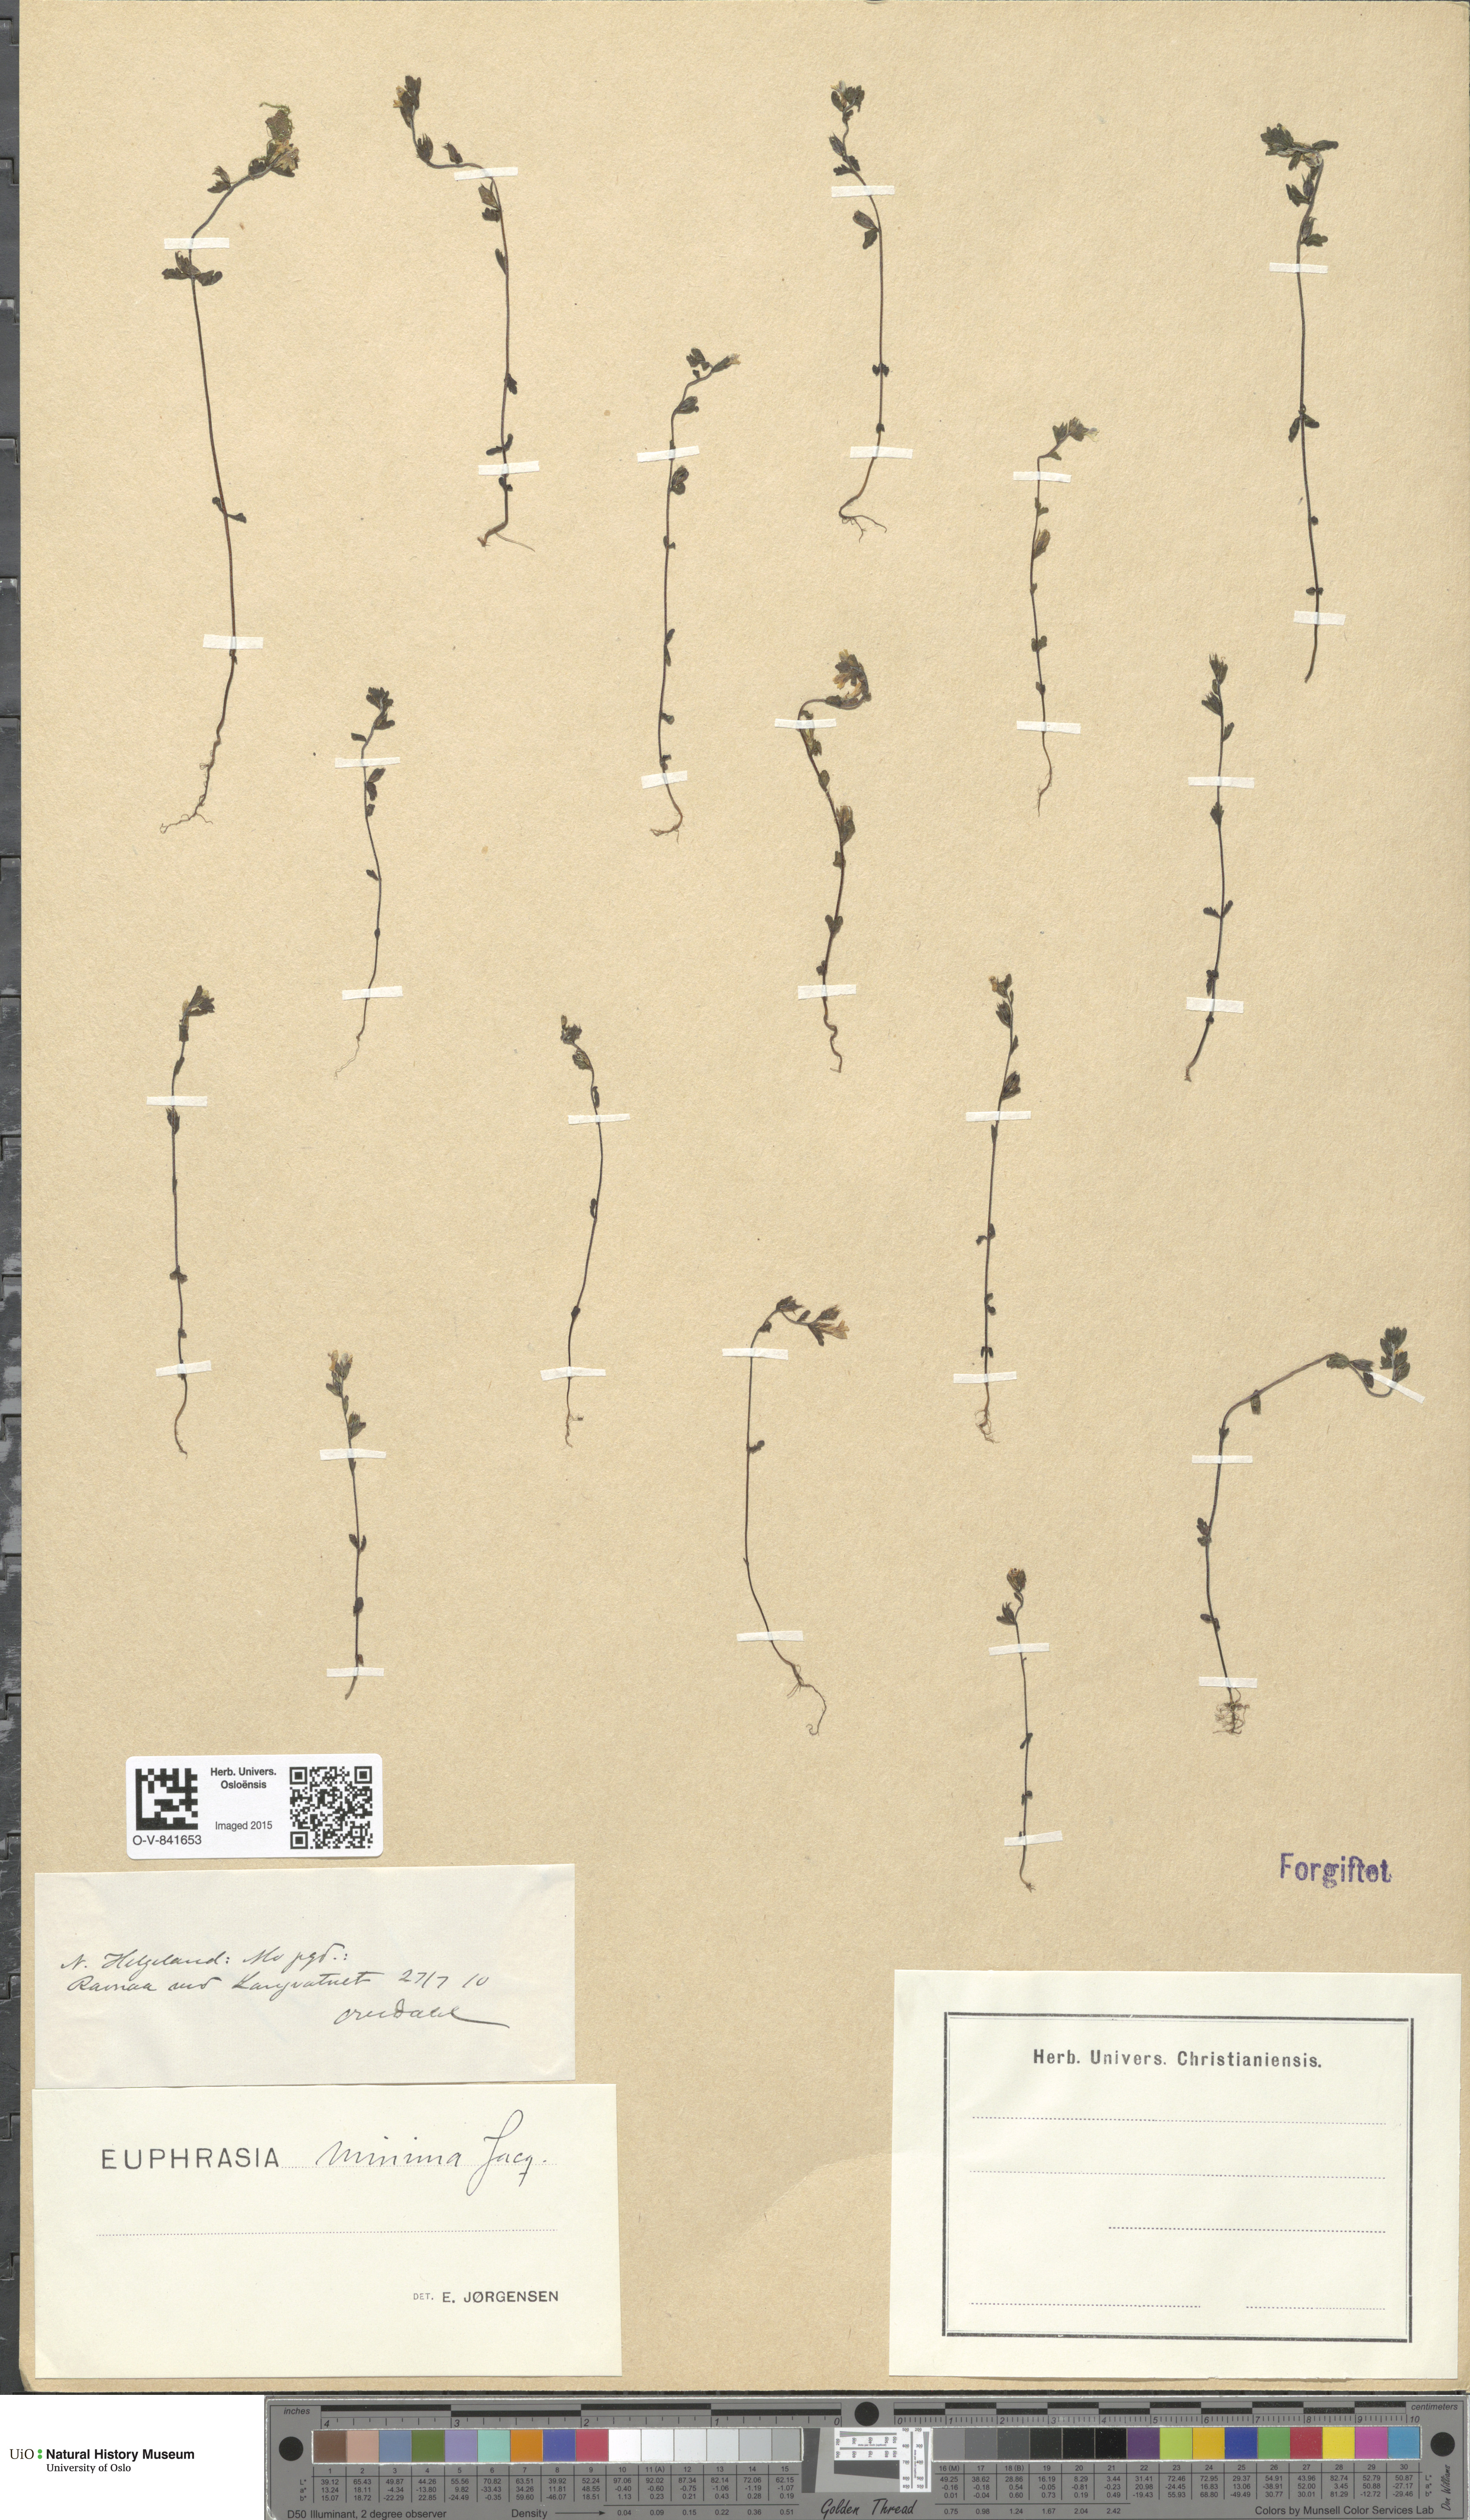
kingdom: Plantae
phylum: Tracheophyta
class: Magnoliopsida
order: Lamiales
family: Orobanchaceae
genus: Euphrasia
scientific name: Euphrasia wettsteinii
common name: Wettstein's eyebright
